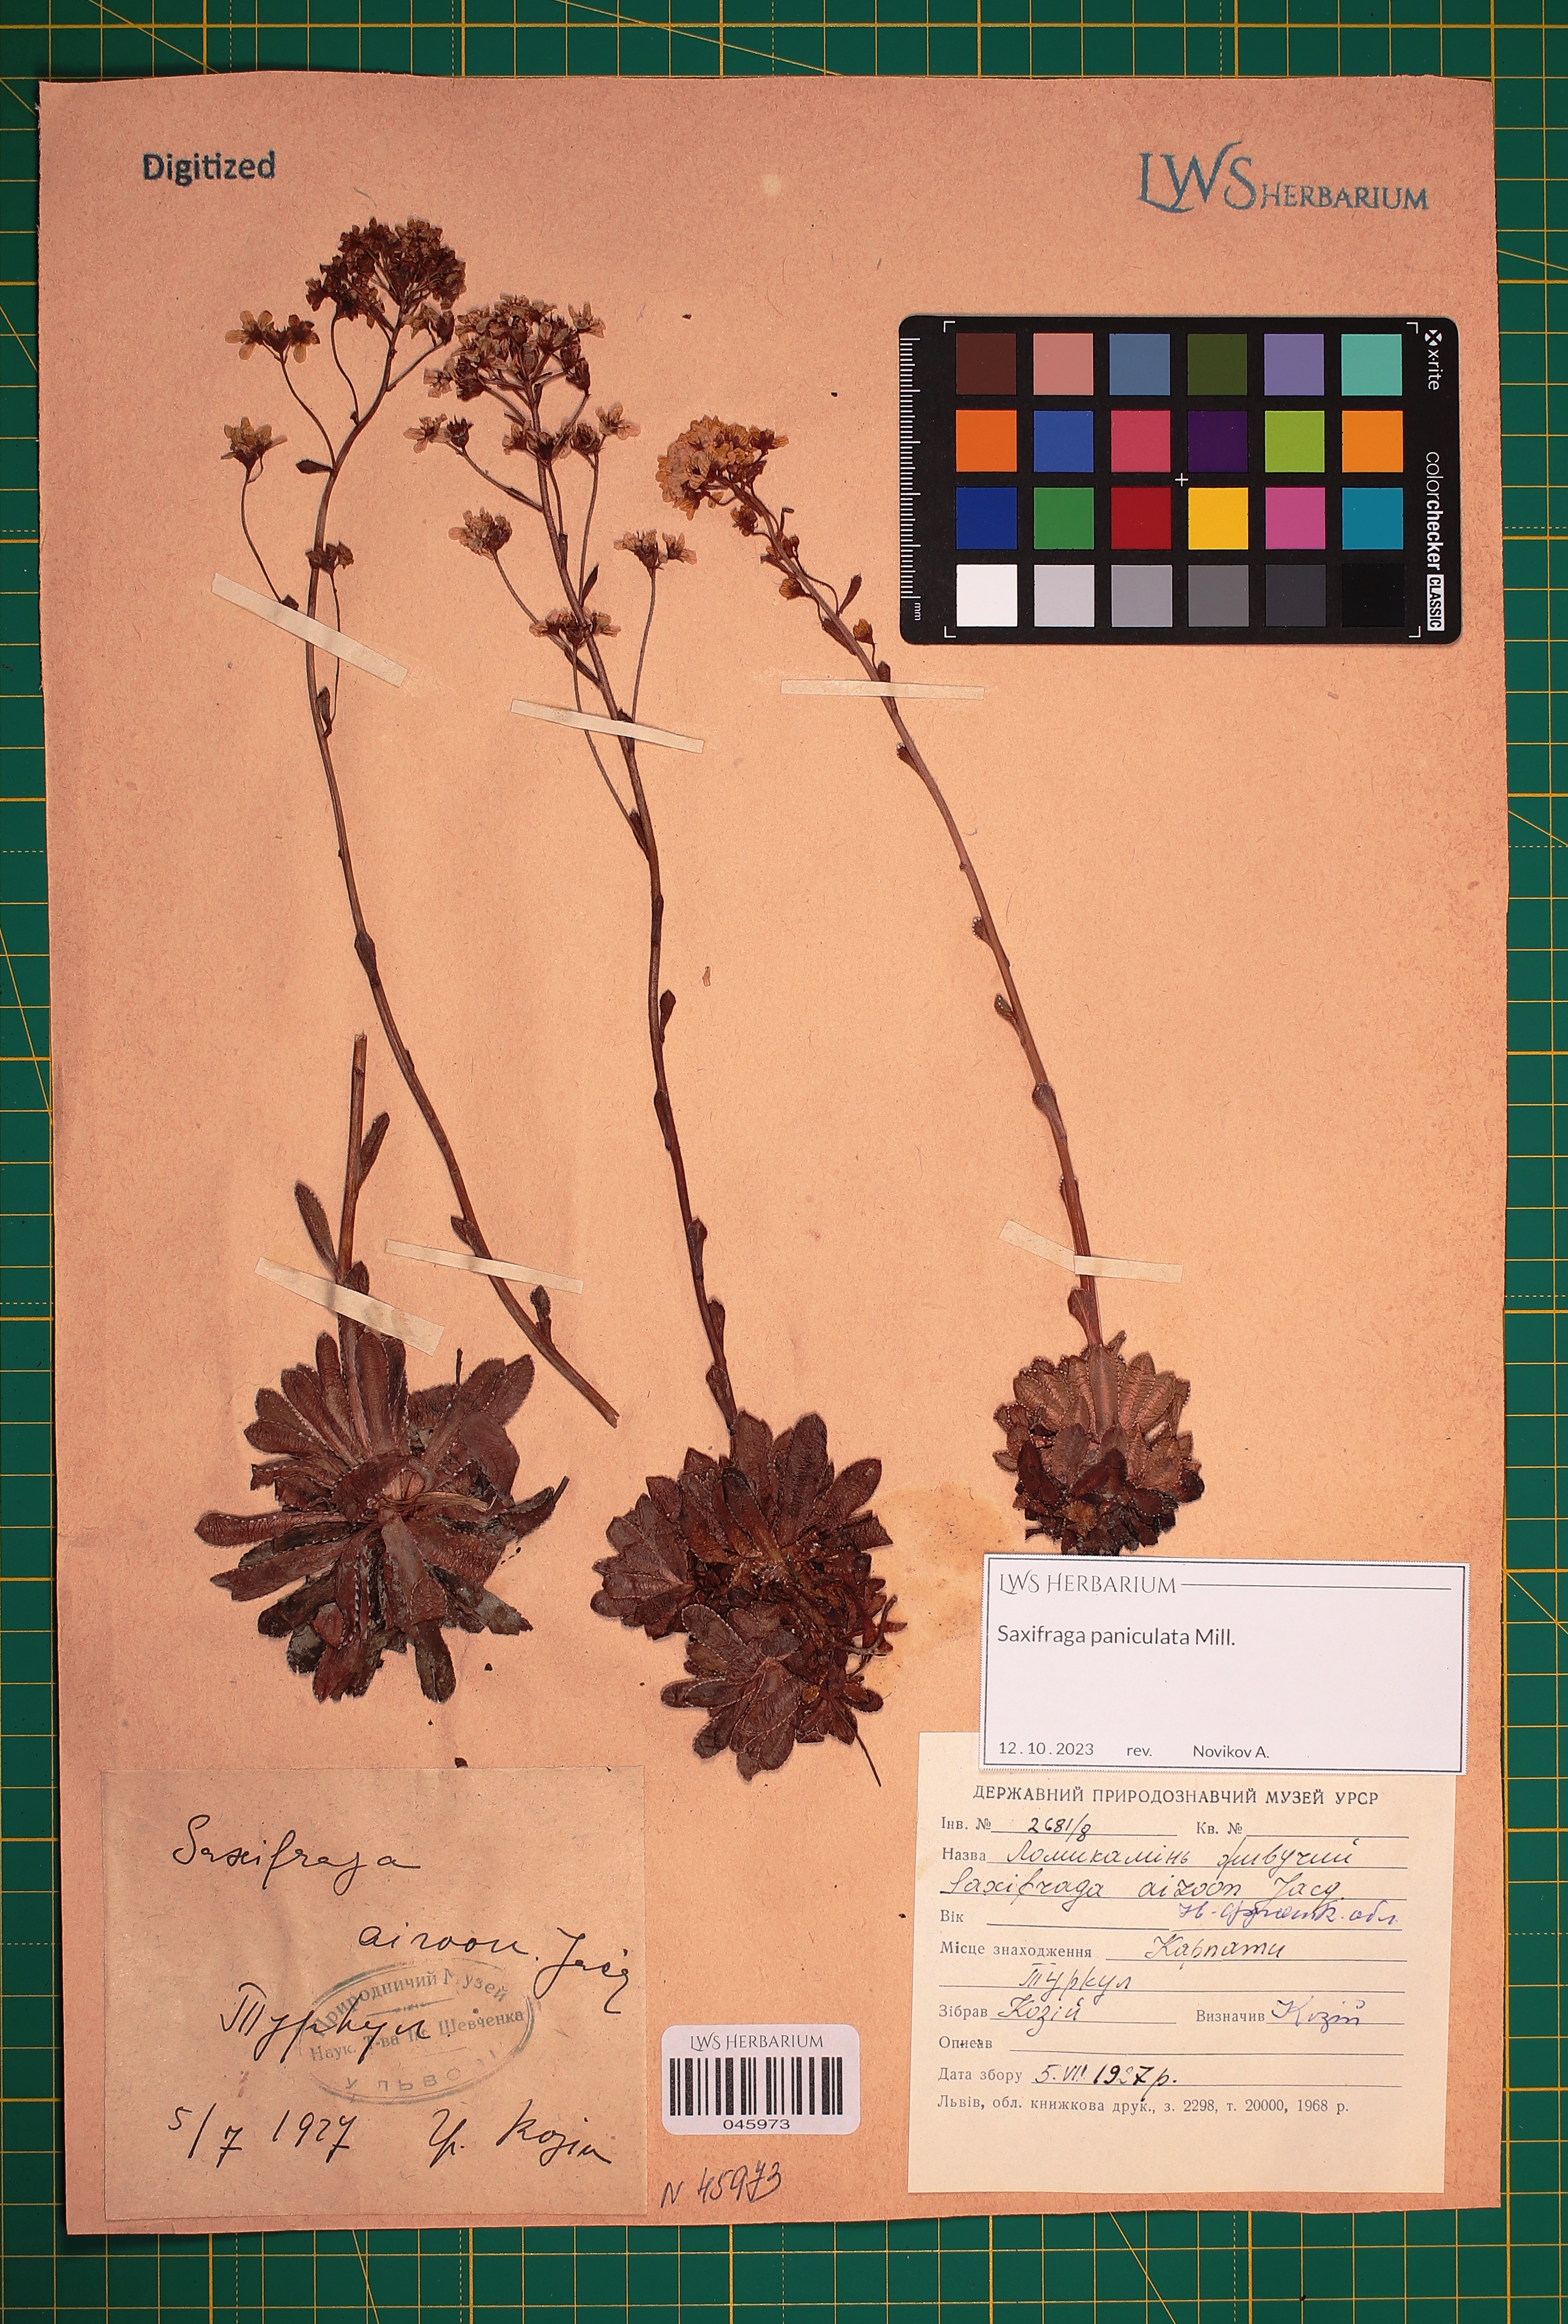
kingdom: Plantae
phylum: Tracheophyta
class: Magnoliopsida
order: Saxifragales
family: Saxifragaceae
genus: Saxifraga
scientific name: Saxifraga paniculata
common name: Livelong saxifrage
